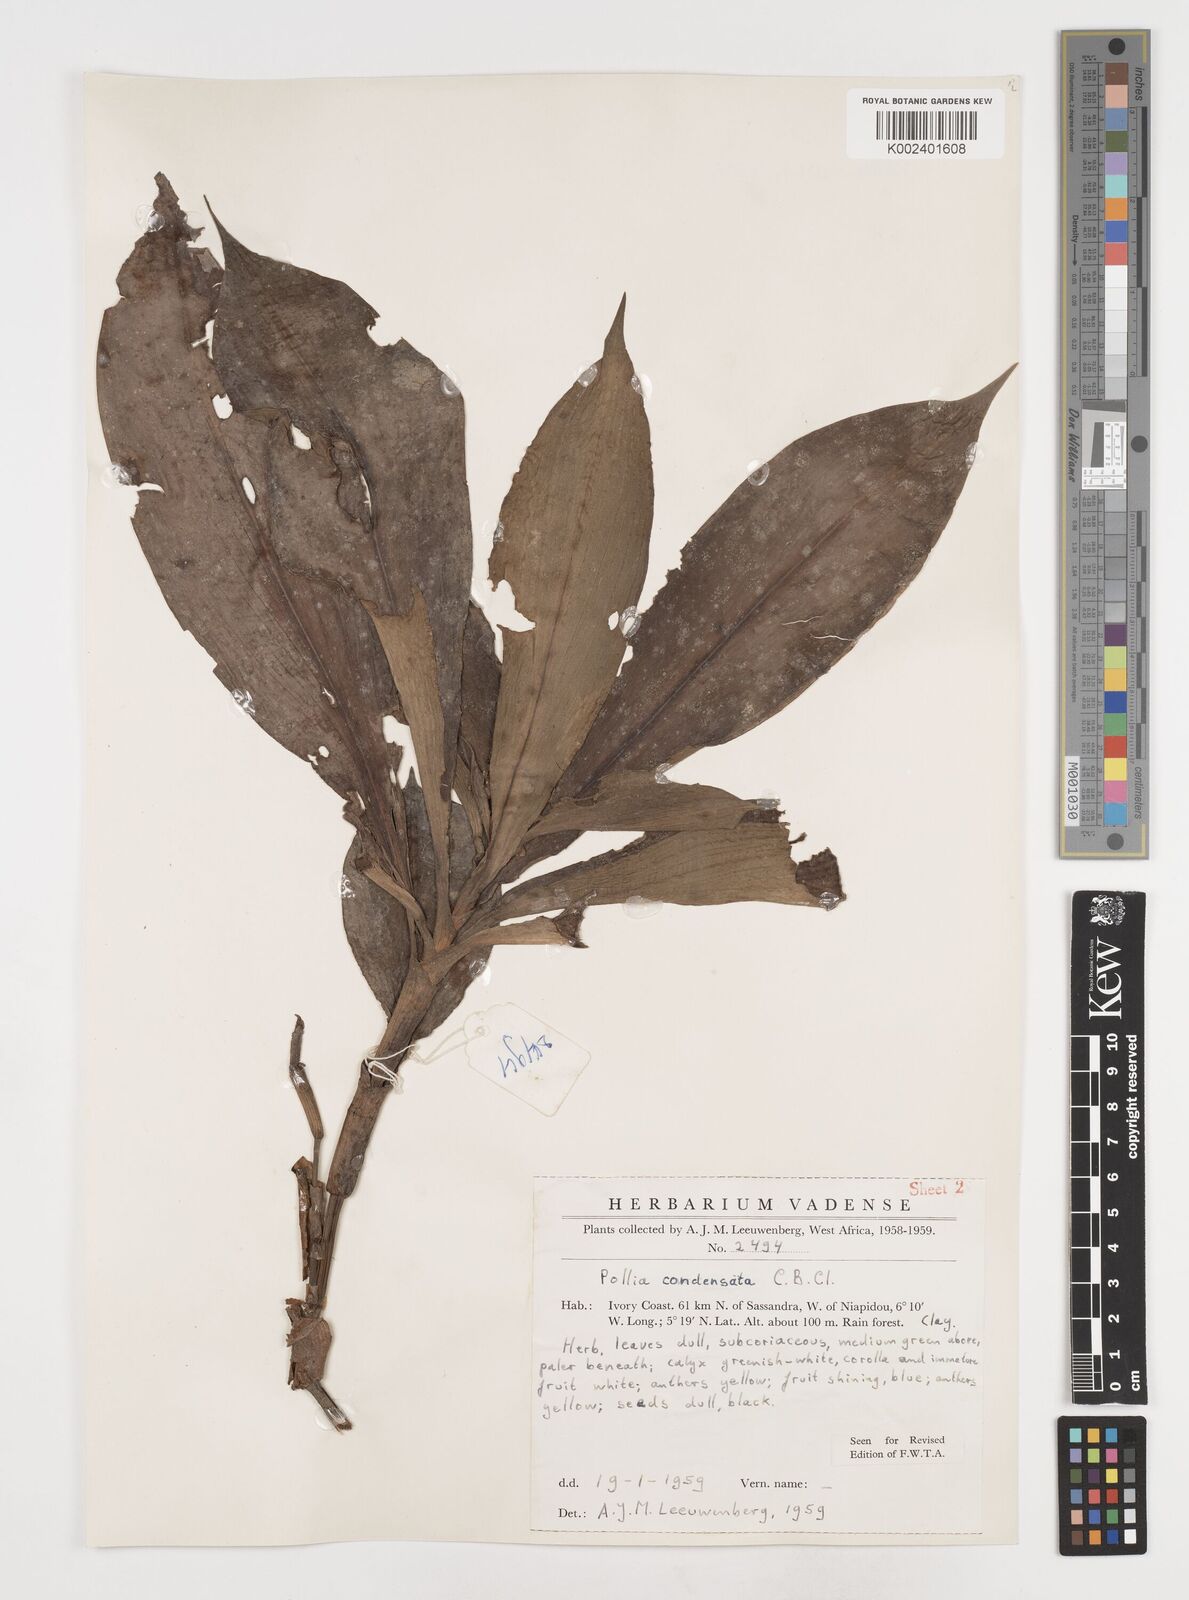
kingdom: Plantae
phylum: Tracheophyta
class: Liliopsida
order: Commelinales
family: Commelinaceae
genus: Pollia
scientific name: Pollia condensata
